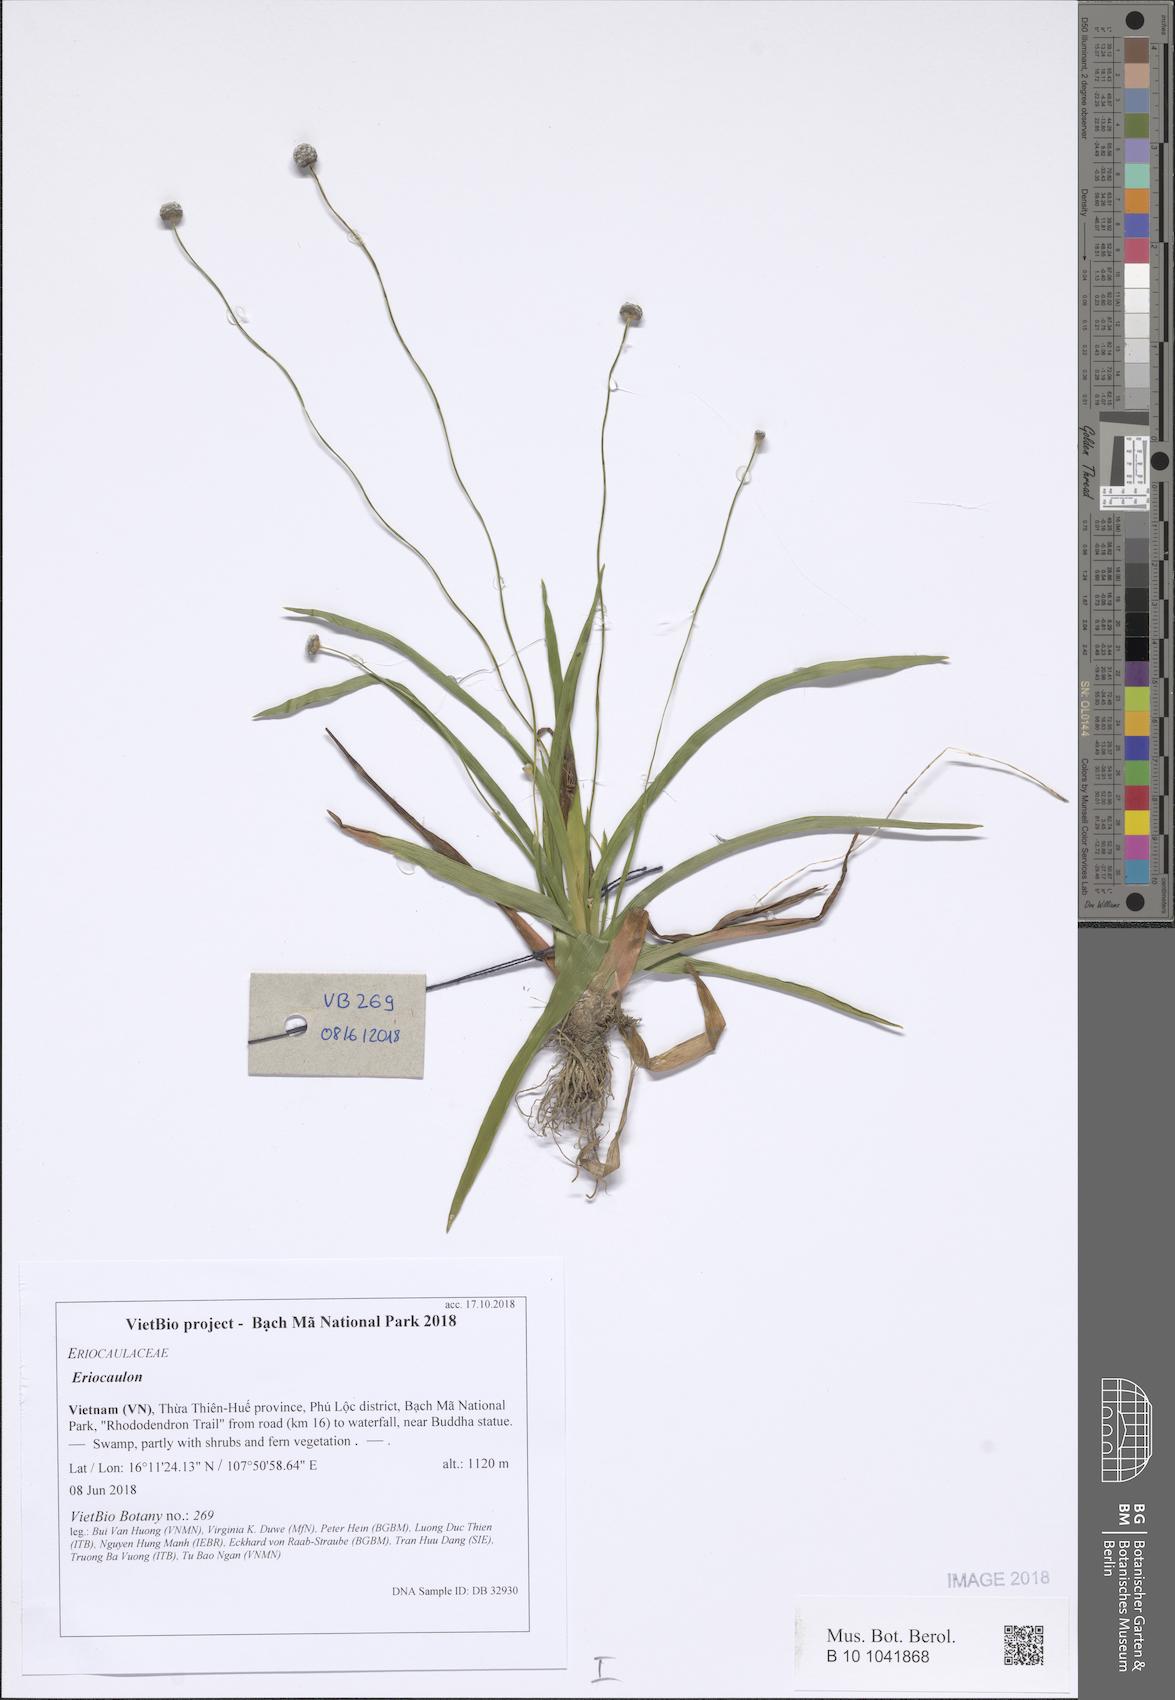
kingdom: Plantae
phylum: Tracheophyta
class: Liliopsida
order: Poales
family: Eriocaulaceae
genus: Eriocaulon
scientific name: Eriocaulon
